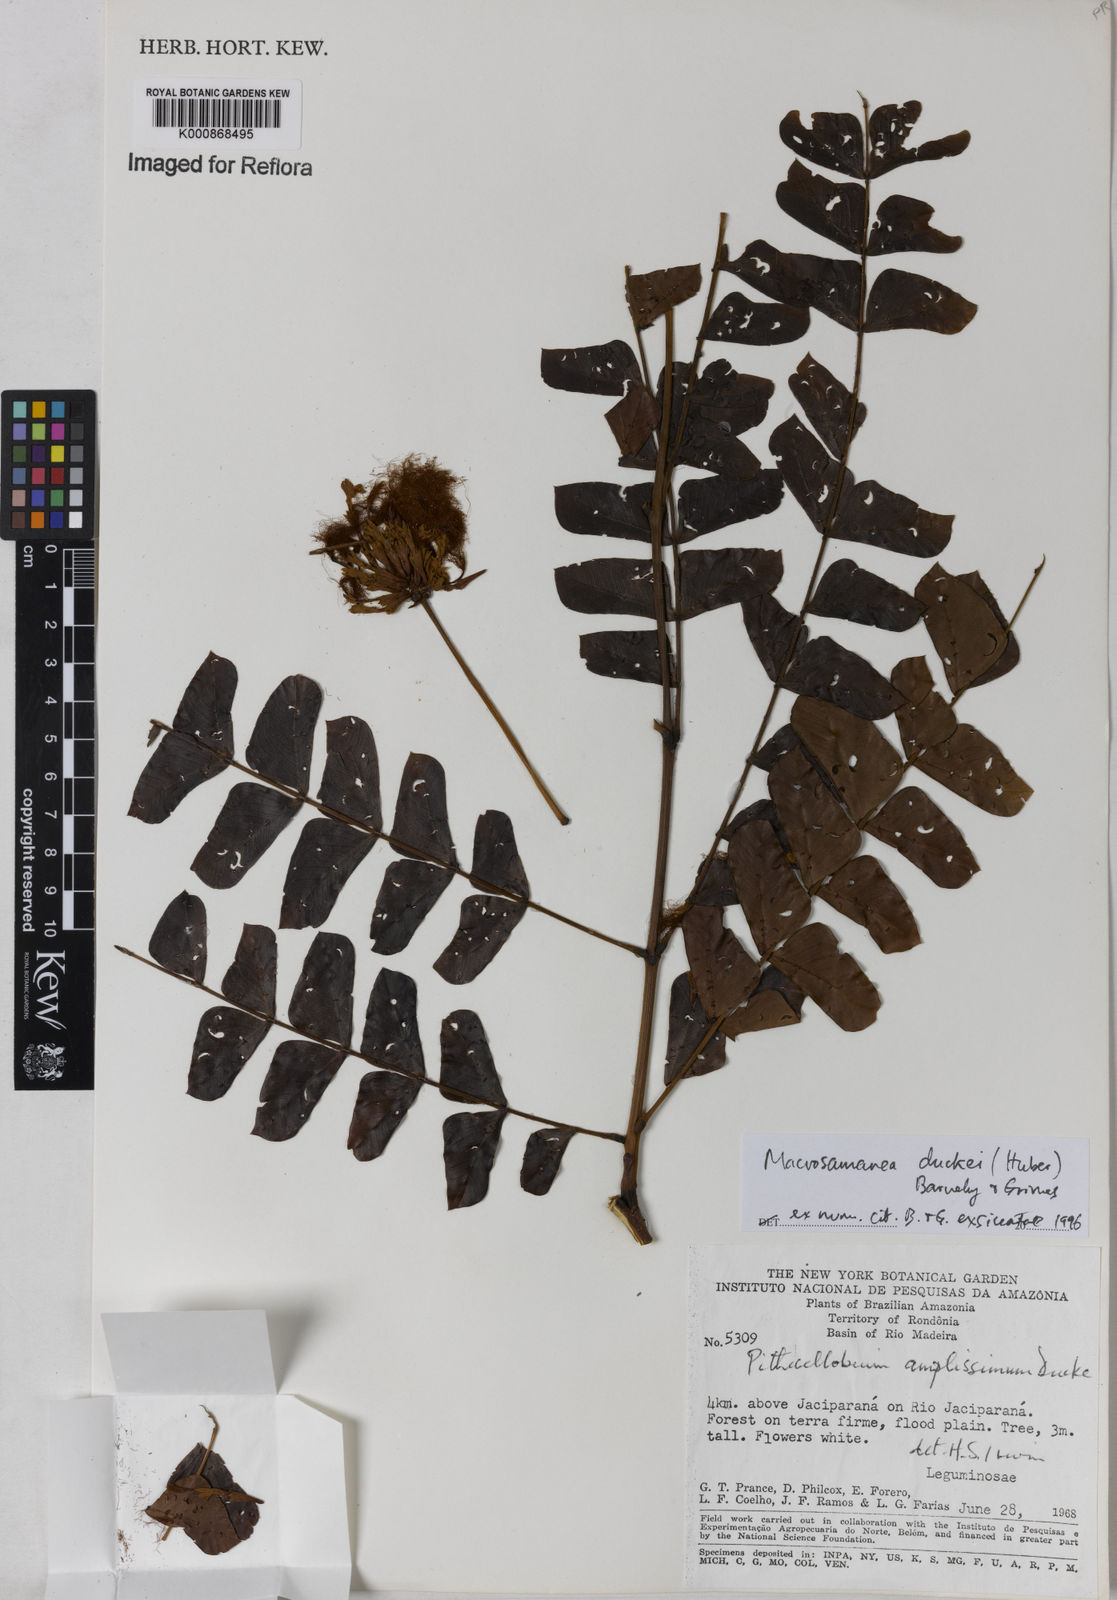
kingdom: Plantae
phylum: Tracheophyta
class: Magnoliopsida
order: Fabales
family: Fabaceae
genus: Macrosamanea
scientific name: Macrosamanea duckei
